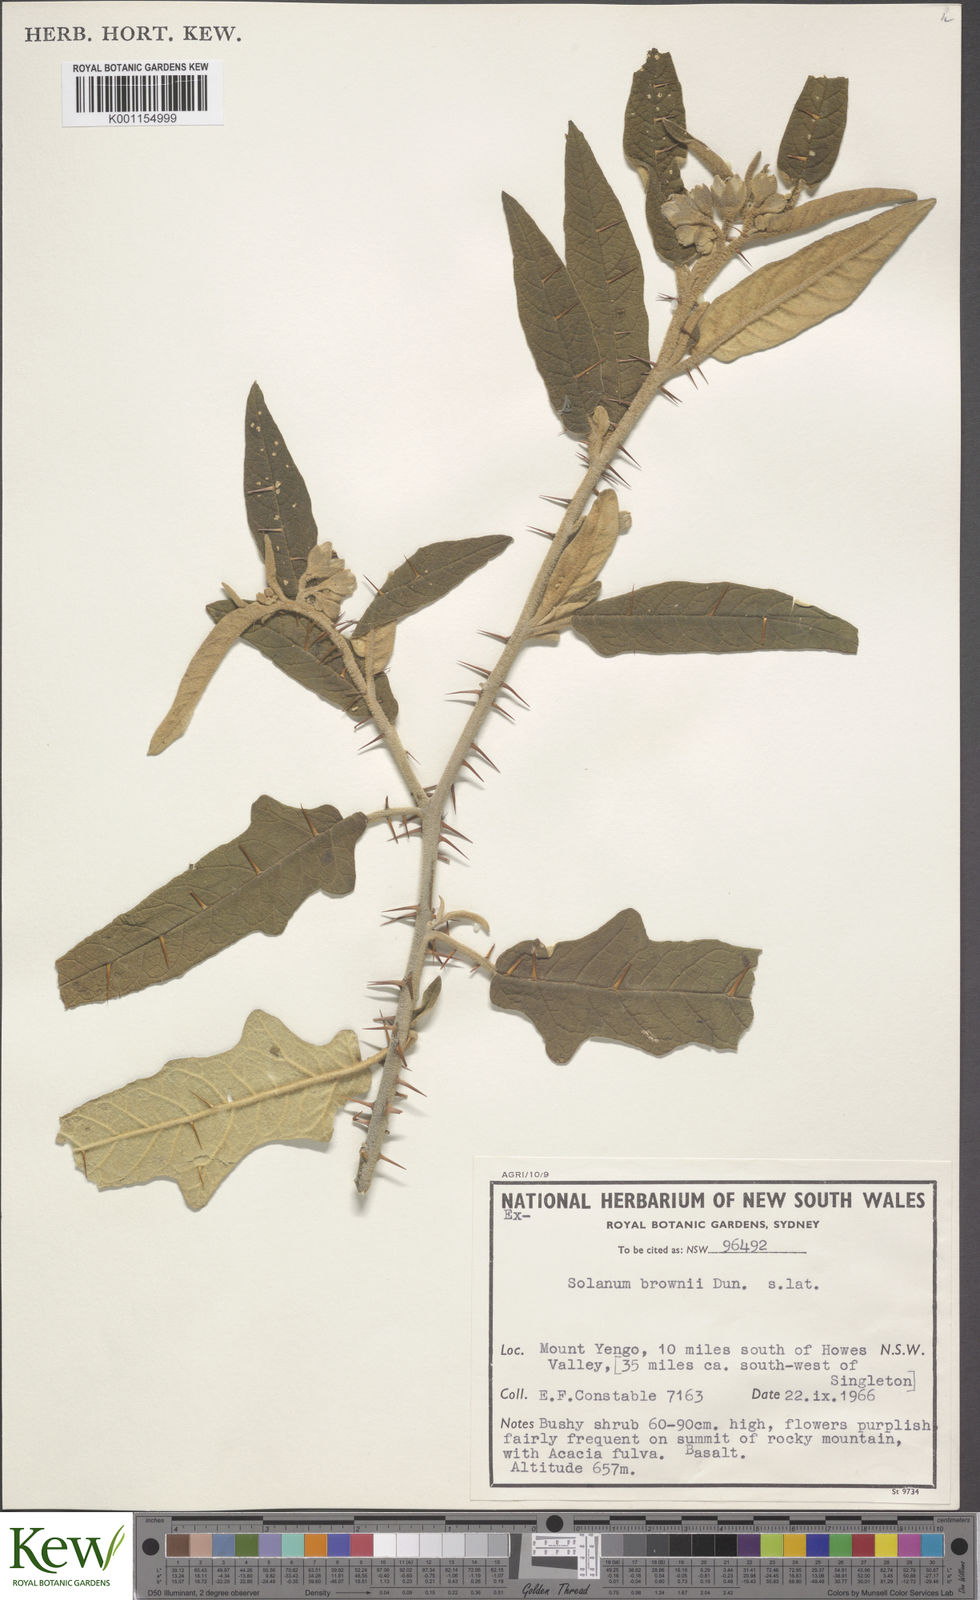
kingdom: Plantae
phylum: Tracheophyta
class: Magnoliopsida
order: Solanales
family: Solanaceae
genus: Solanum
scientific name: Solanum brownii
